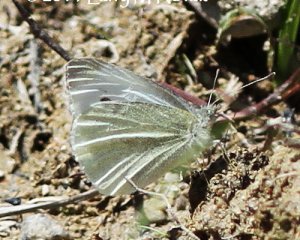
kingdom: Animalia
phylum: Arthropoda
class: Insecta
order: Lepidoptera
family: Pieridae
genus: Pieris
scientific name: Pieris rapae
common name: Cabbage White
